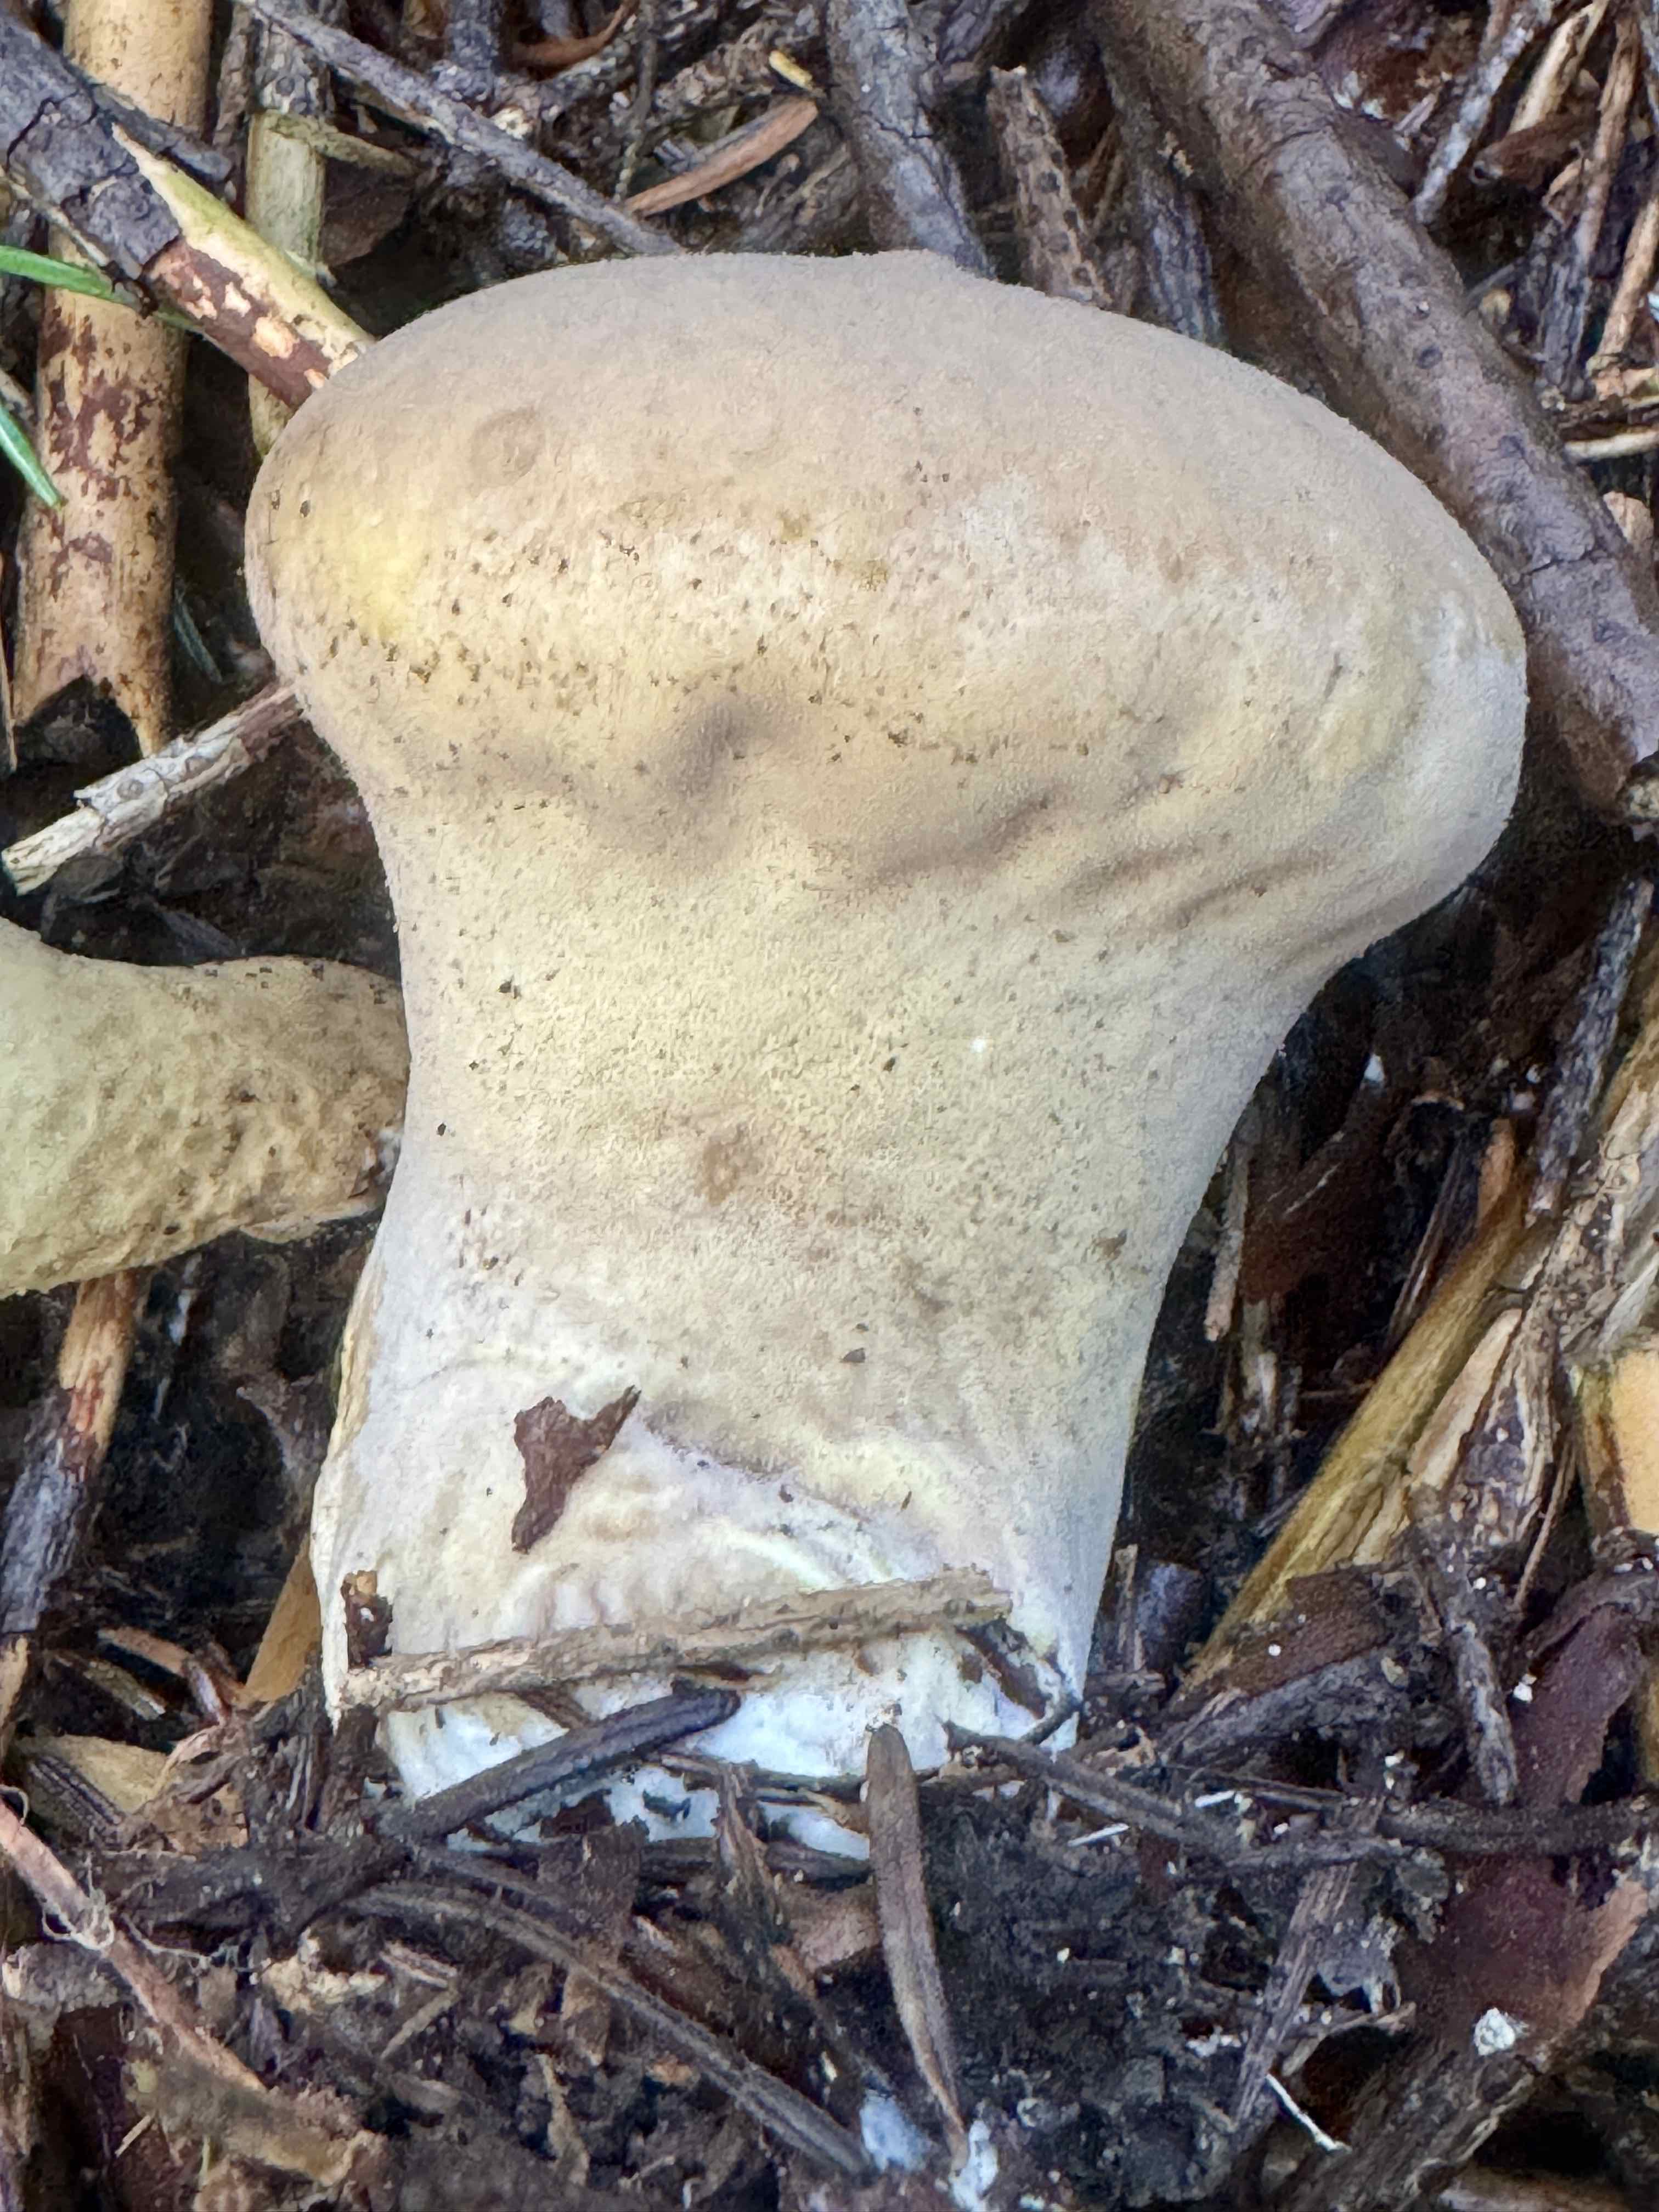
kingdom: Fungi
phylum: Basidiomycota
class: Agaricomycetes
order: Agaricales
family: Lycoperdaceae
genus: Lycoperdon
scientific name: Lycoperdon excipuliforme
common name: højstokket støvbold
